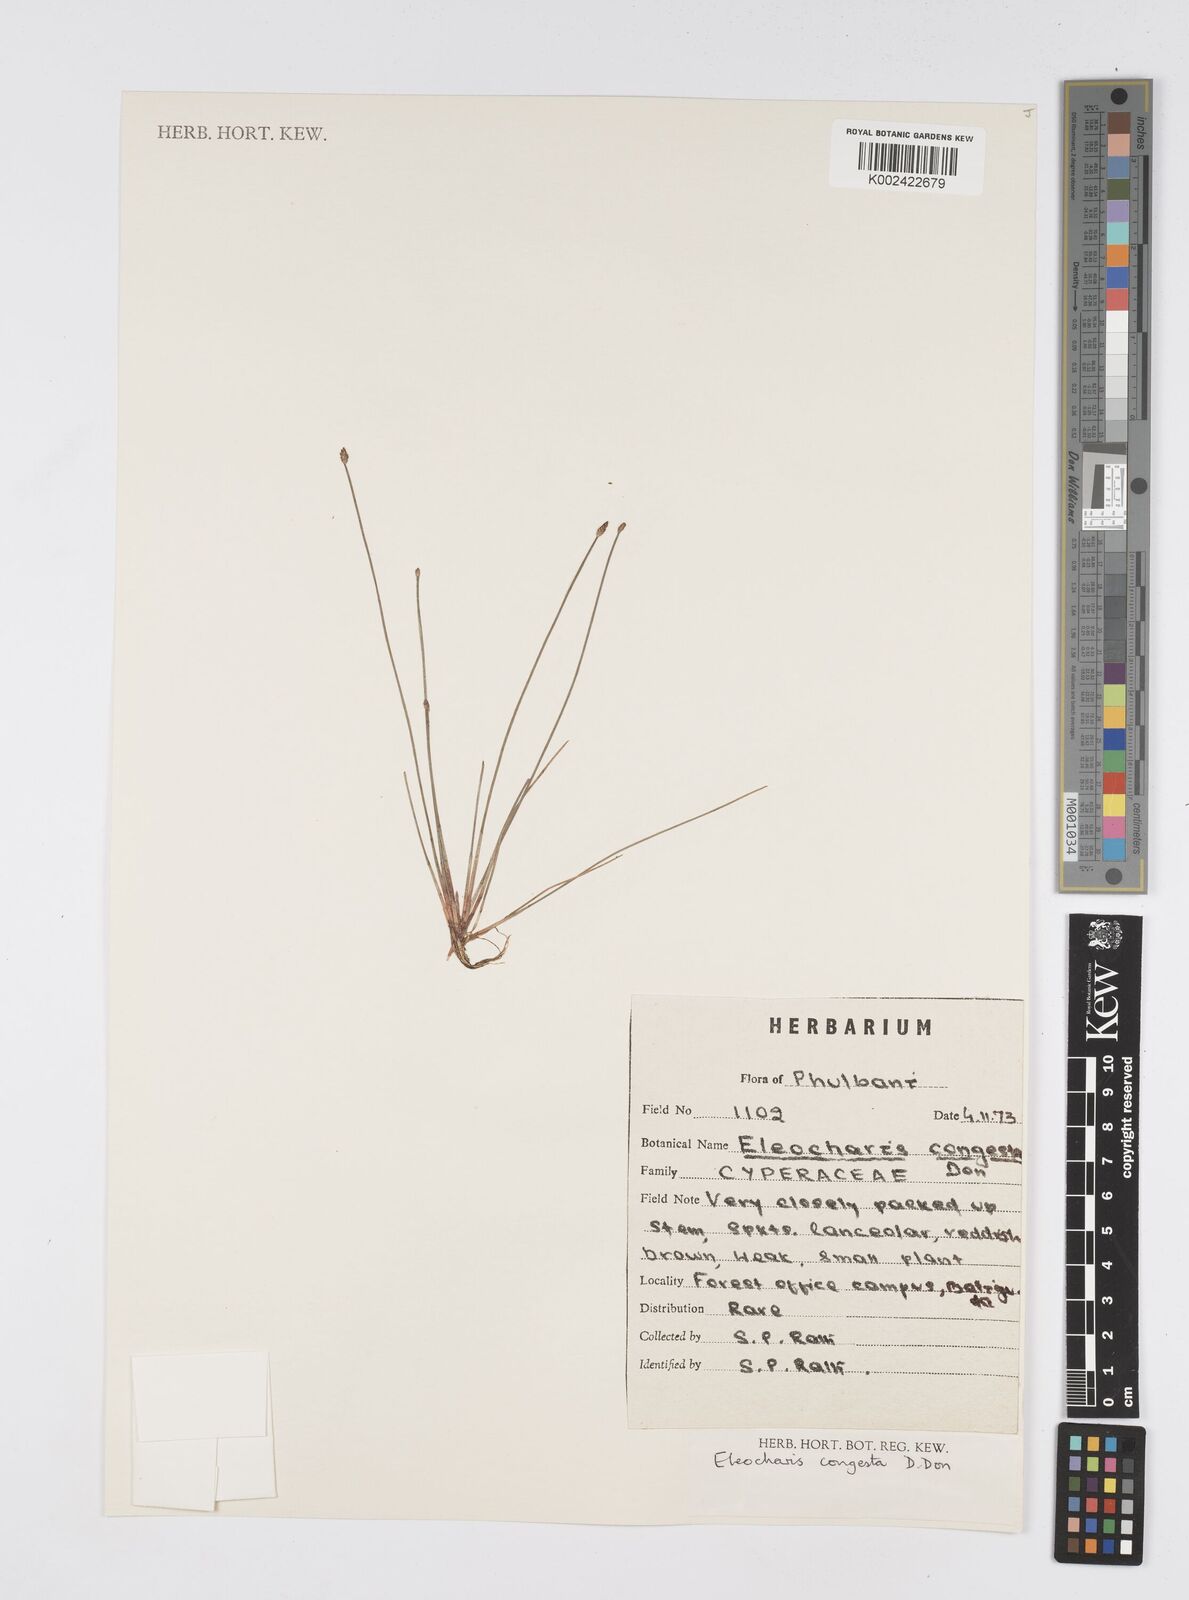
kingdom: Plantae
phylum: Tracheophyta
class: Liliopsida
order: Poales
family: Cyperaceae
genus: Eleocharis
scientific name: Eleocharis congesta
